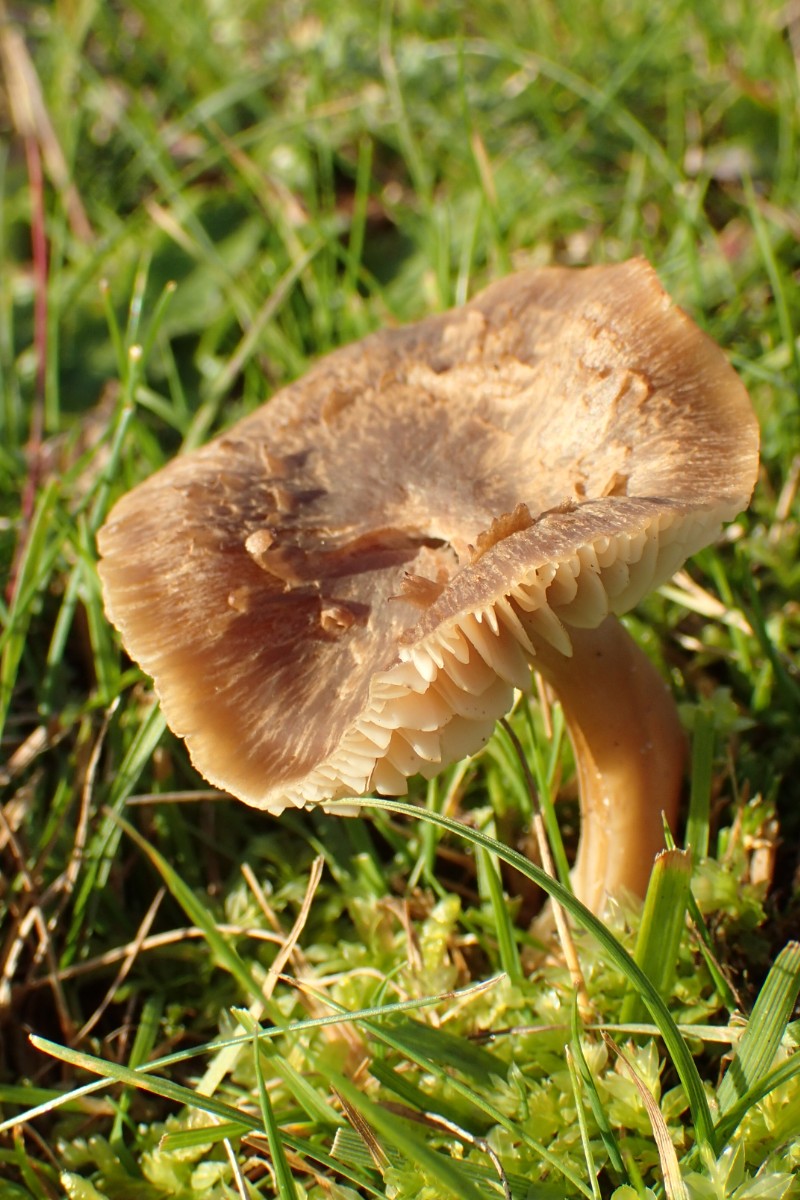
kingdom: Fungi
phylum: Basidiomycota
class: Agaricomycetes
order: Agaricales
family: Hygrophoraceae
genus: Neohygrocybe
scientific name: Neohygrocybe nitrata
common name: stinkende vokshat
